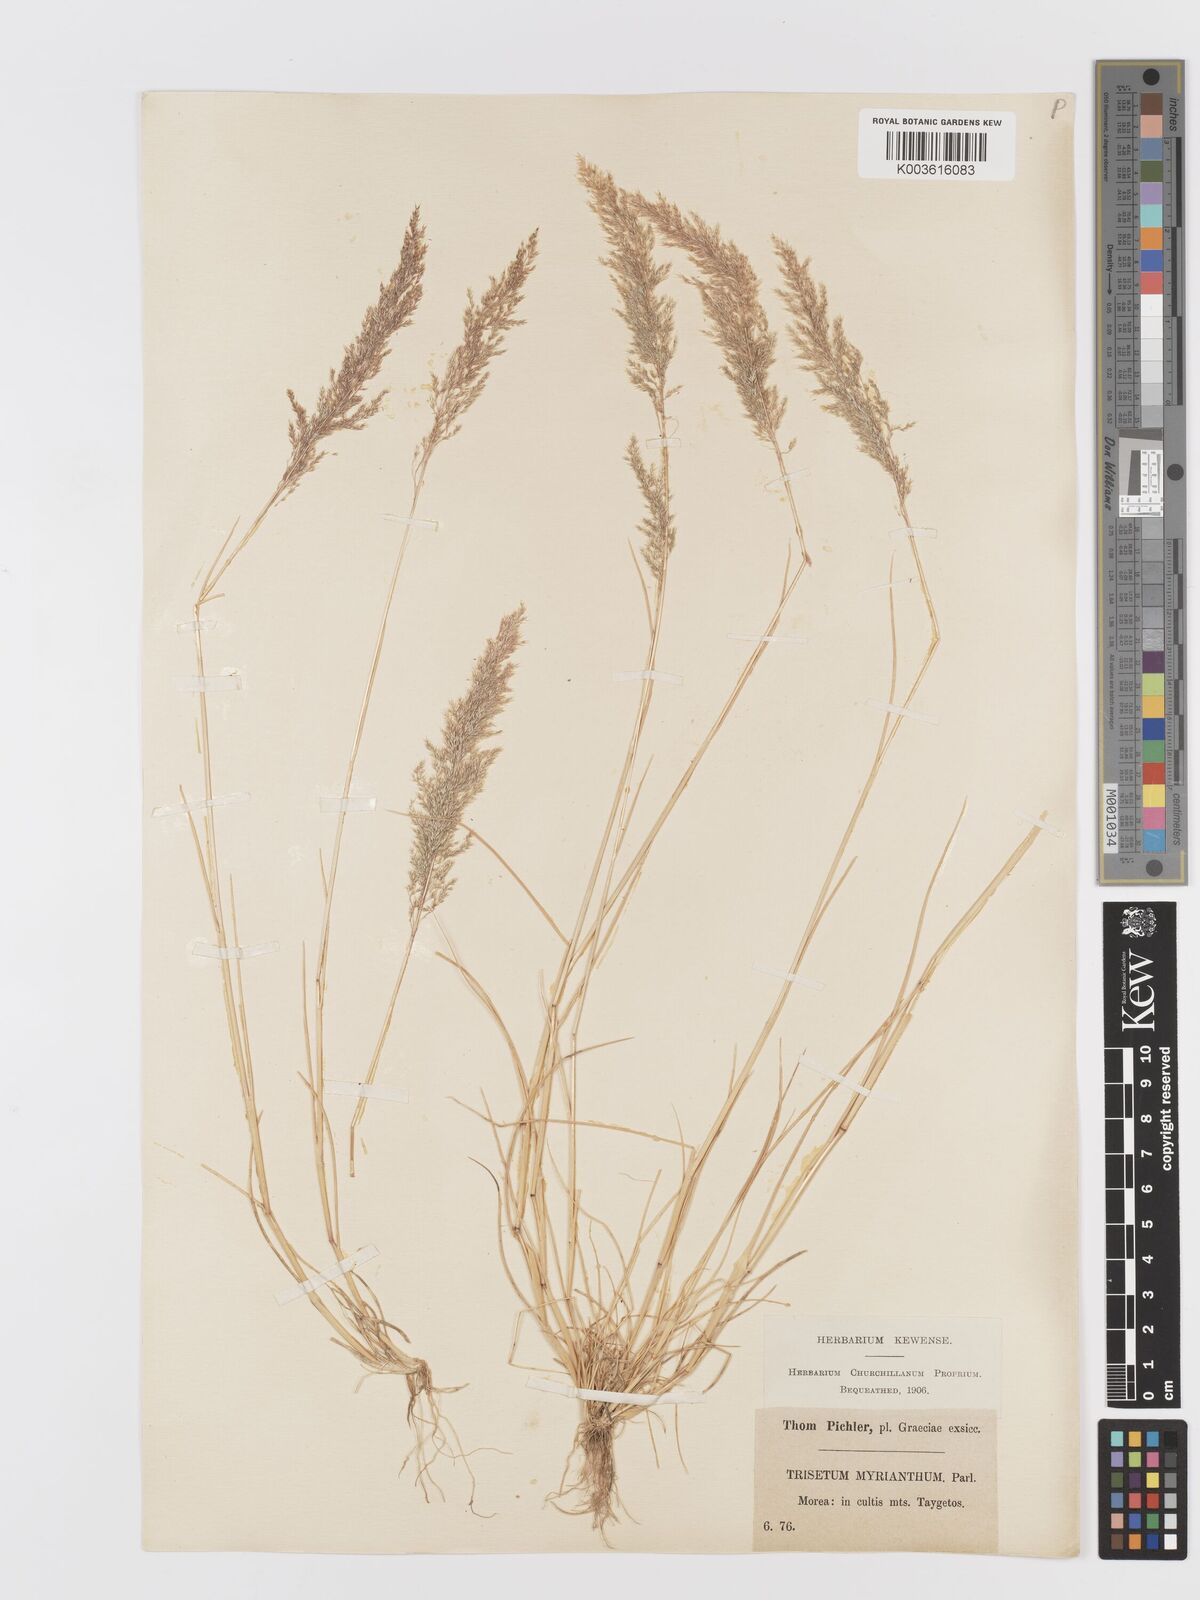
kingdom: Plantae
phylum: Tracheophyta
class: Liliopsida
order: Poales
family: Poaceae
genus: Parvotrisetum
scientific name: Parvotrisetum myrianthum
